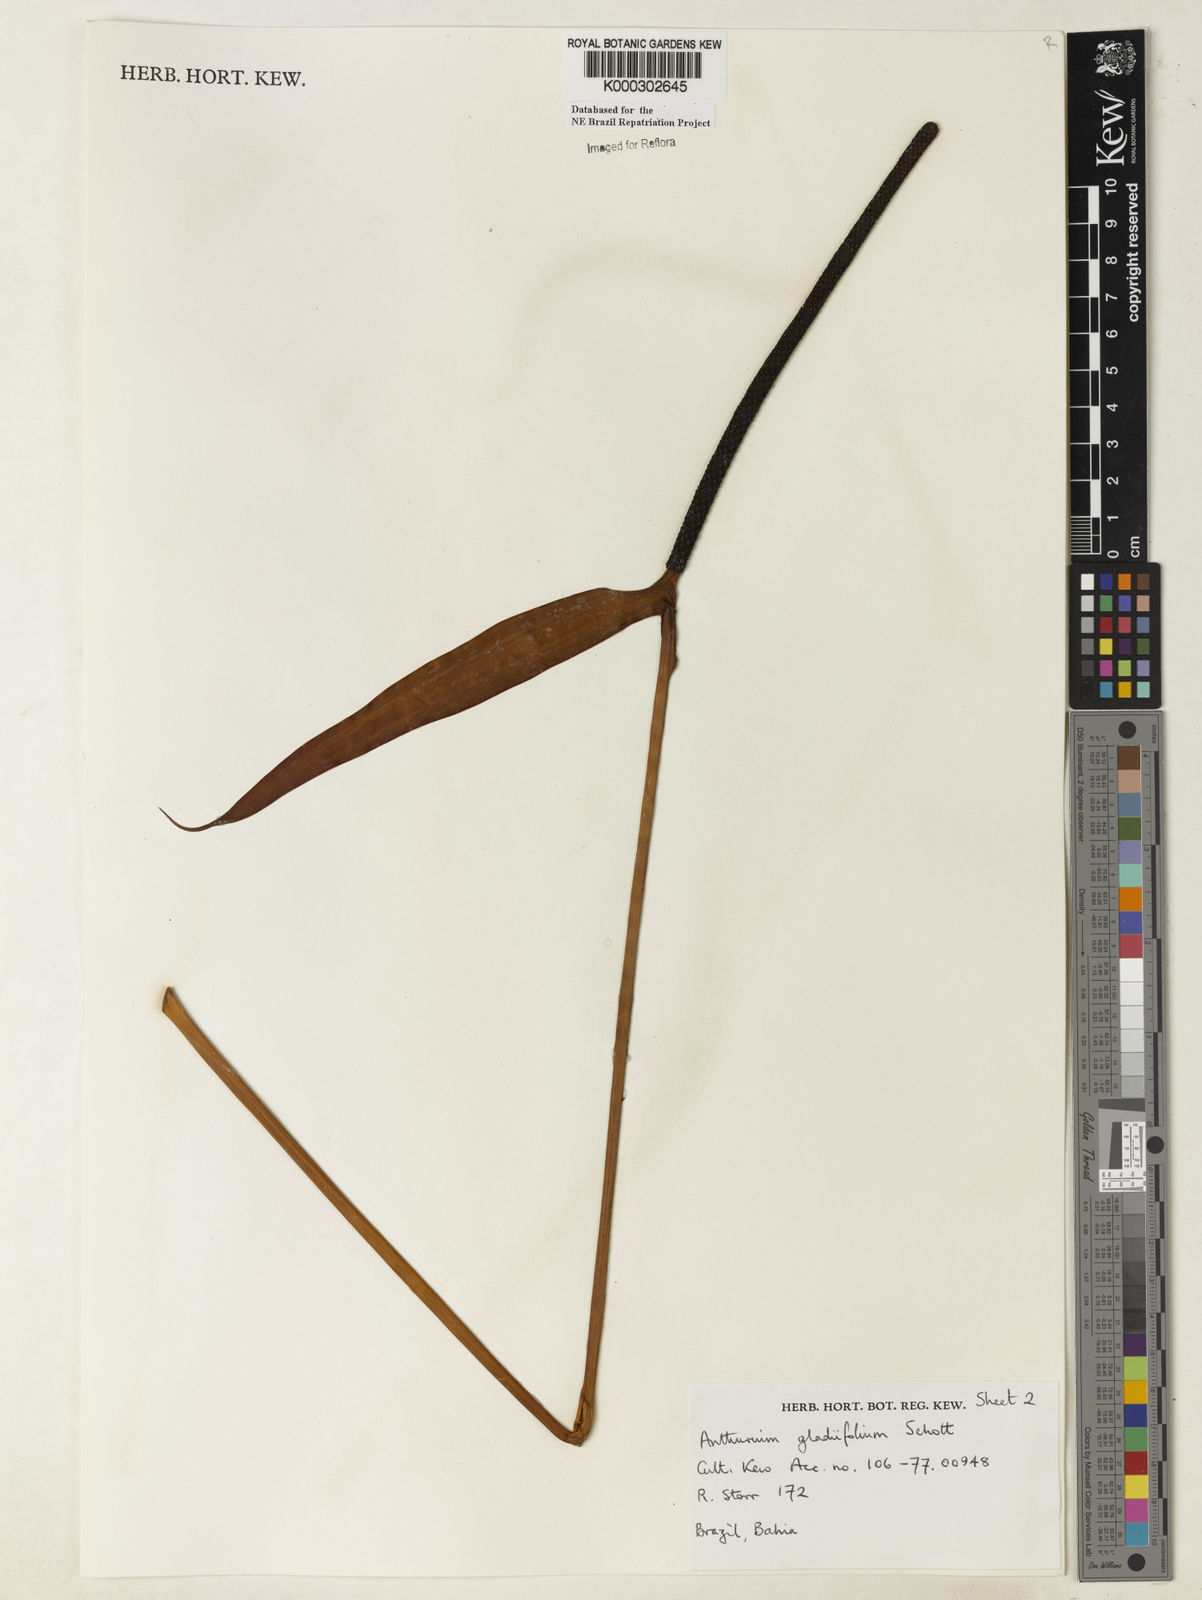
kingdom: Plantae
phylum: Tracheophyta
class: Liliopsida
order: Alismatales
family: Araceae
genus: Anthurium
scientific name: Anthurium gladiifolium
